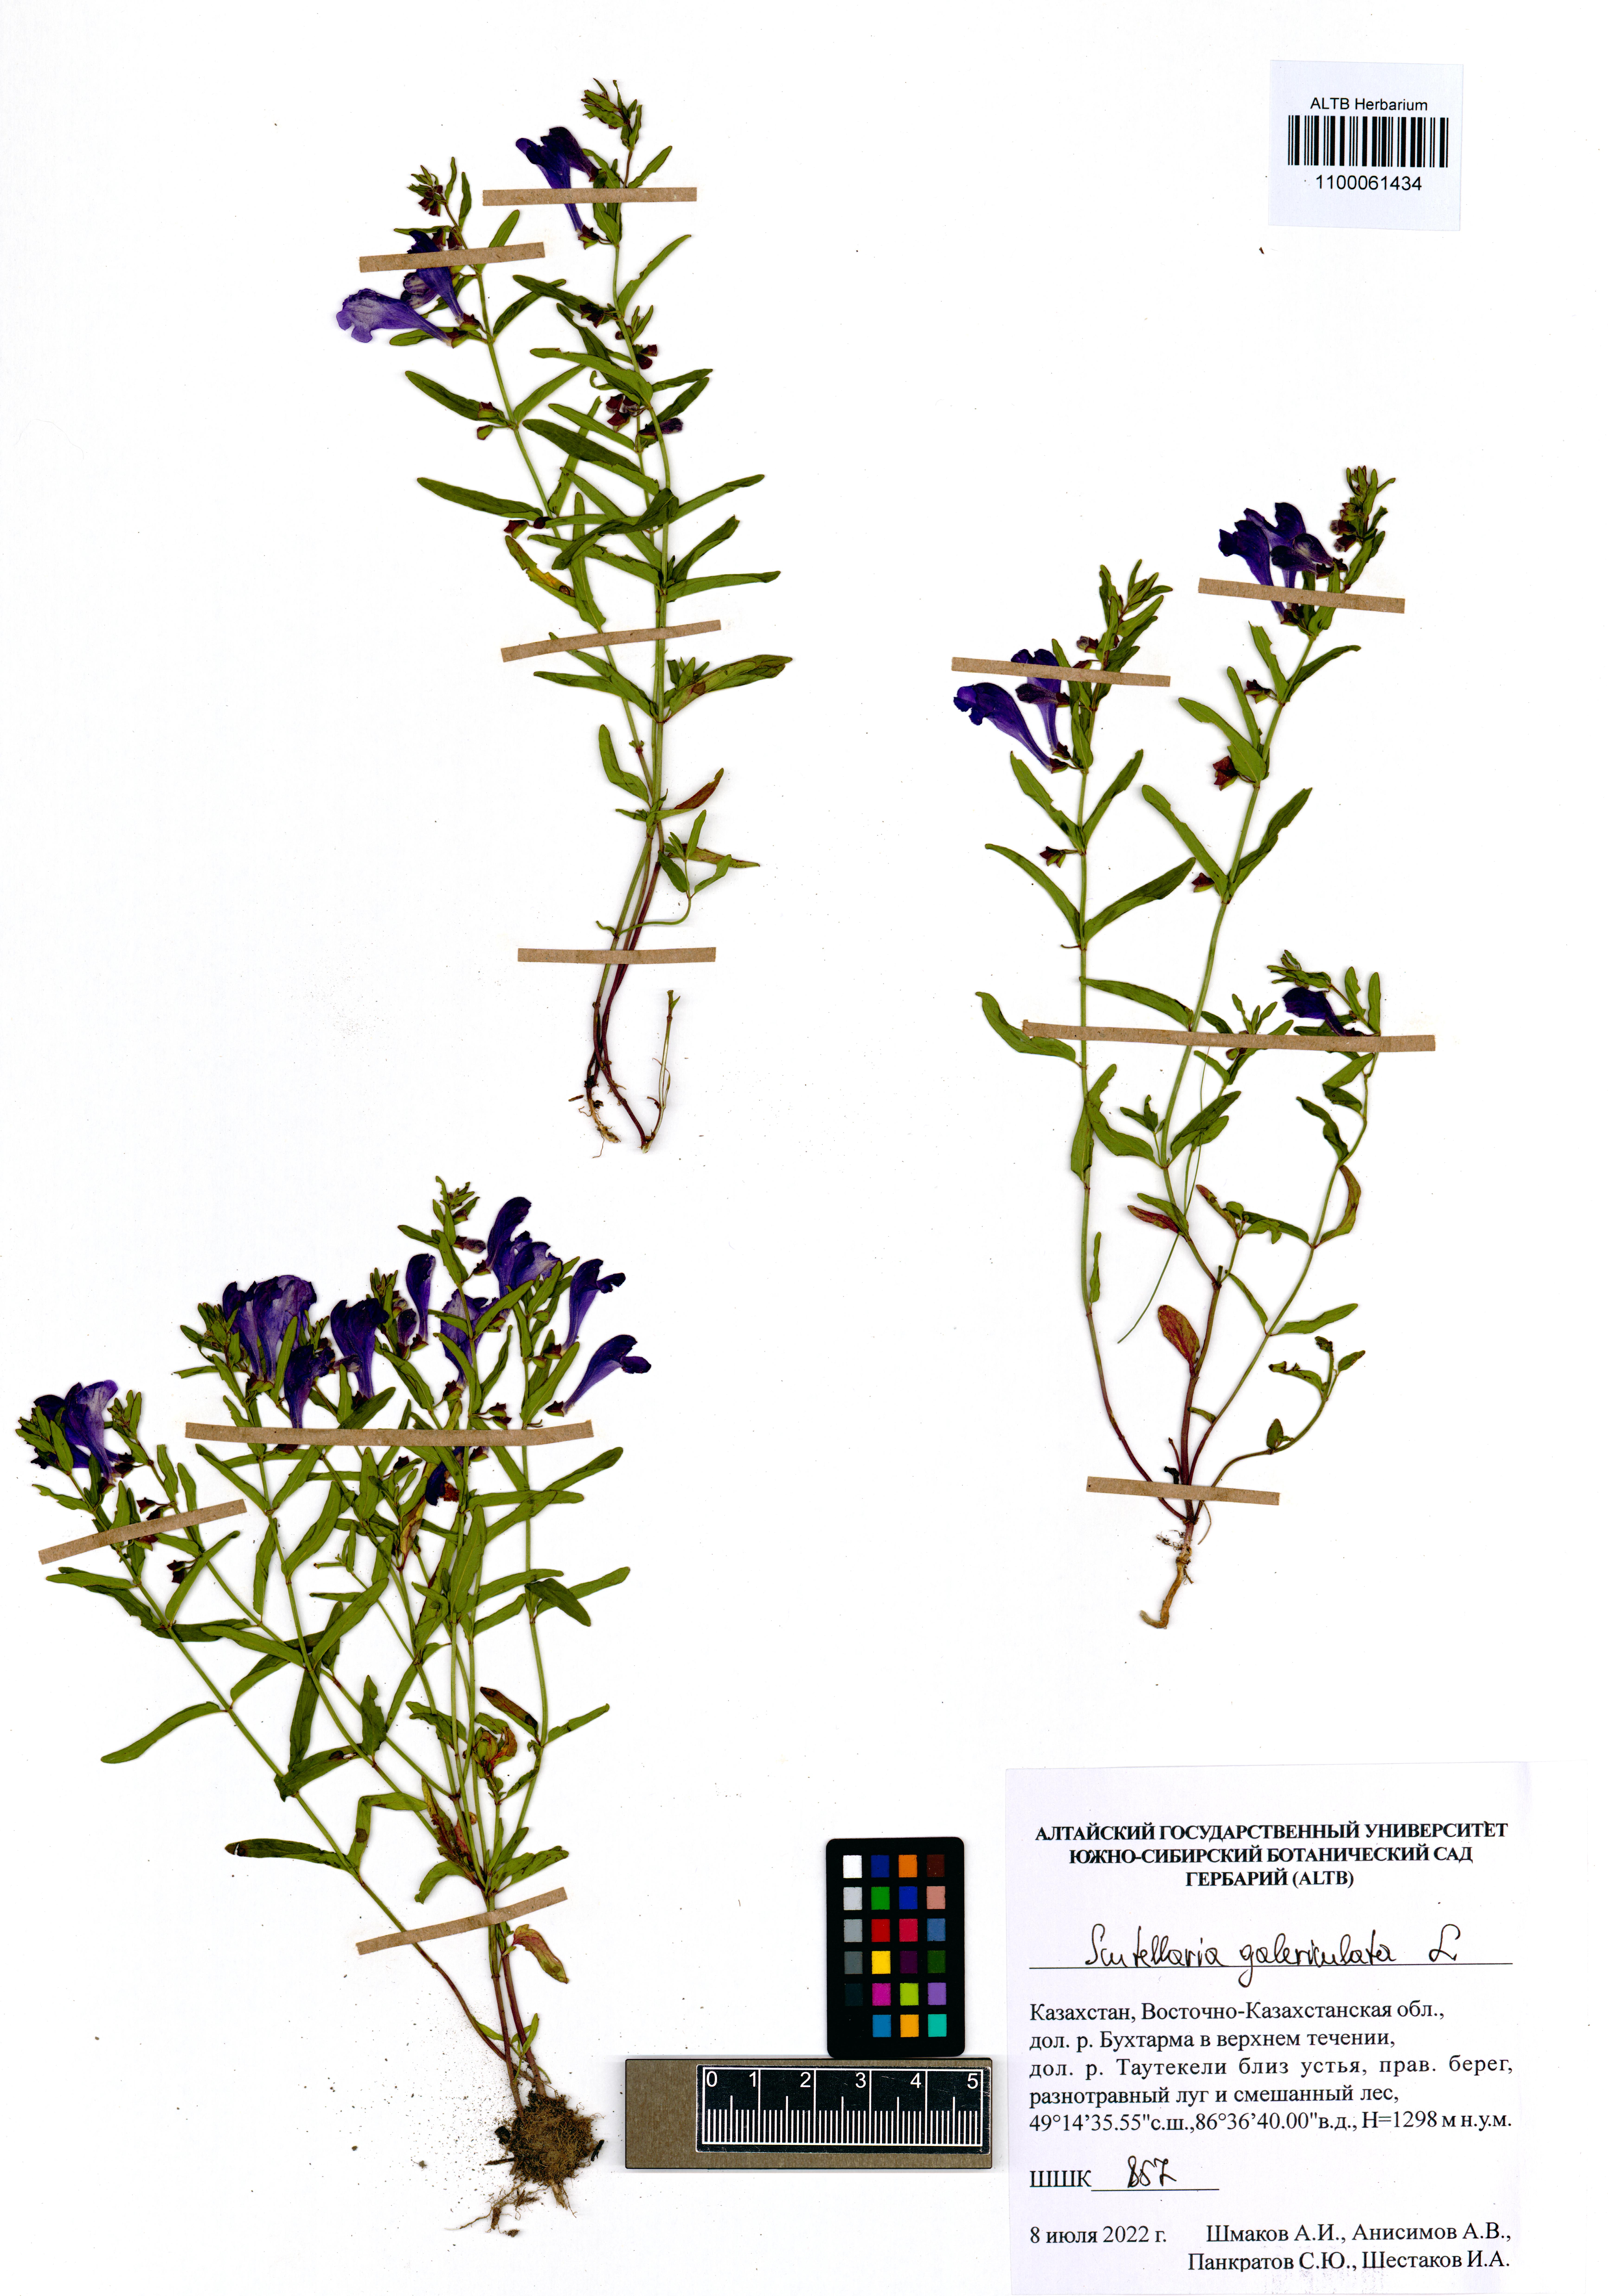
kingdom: Plantae
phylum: Tracheophyta
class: Magnoliopsida
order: Lamiales
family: Lamiaceae
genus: Scutellaria
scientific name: Scutellaria galericulata
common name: Skullcap
